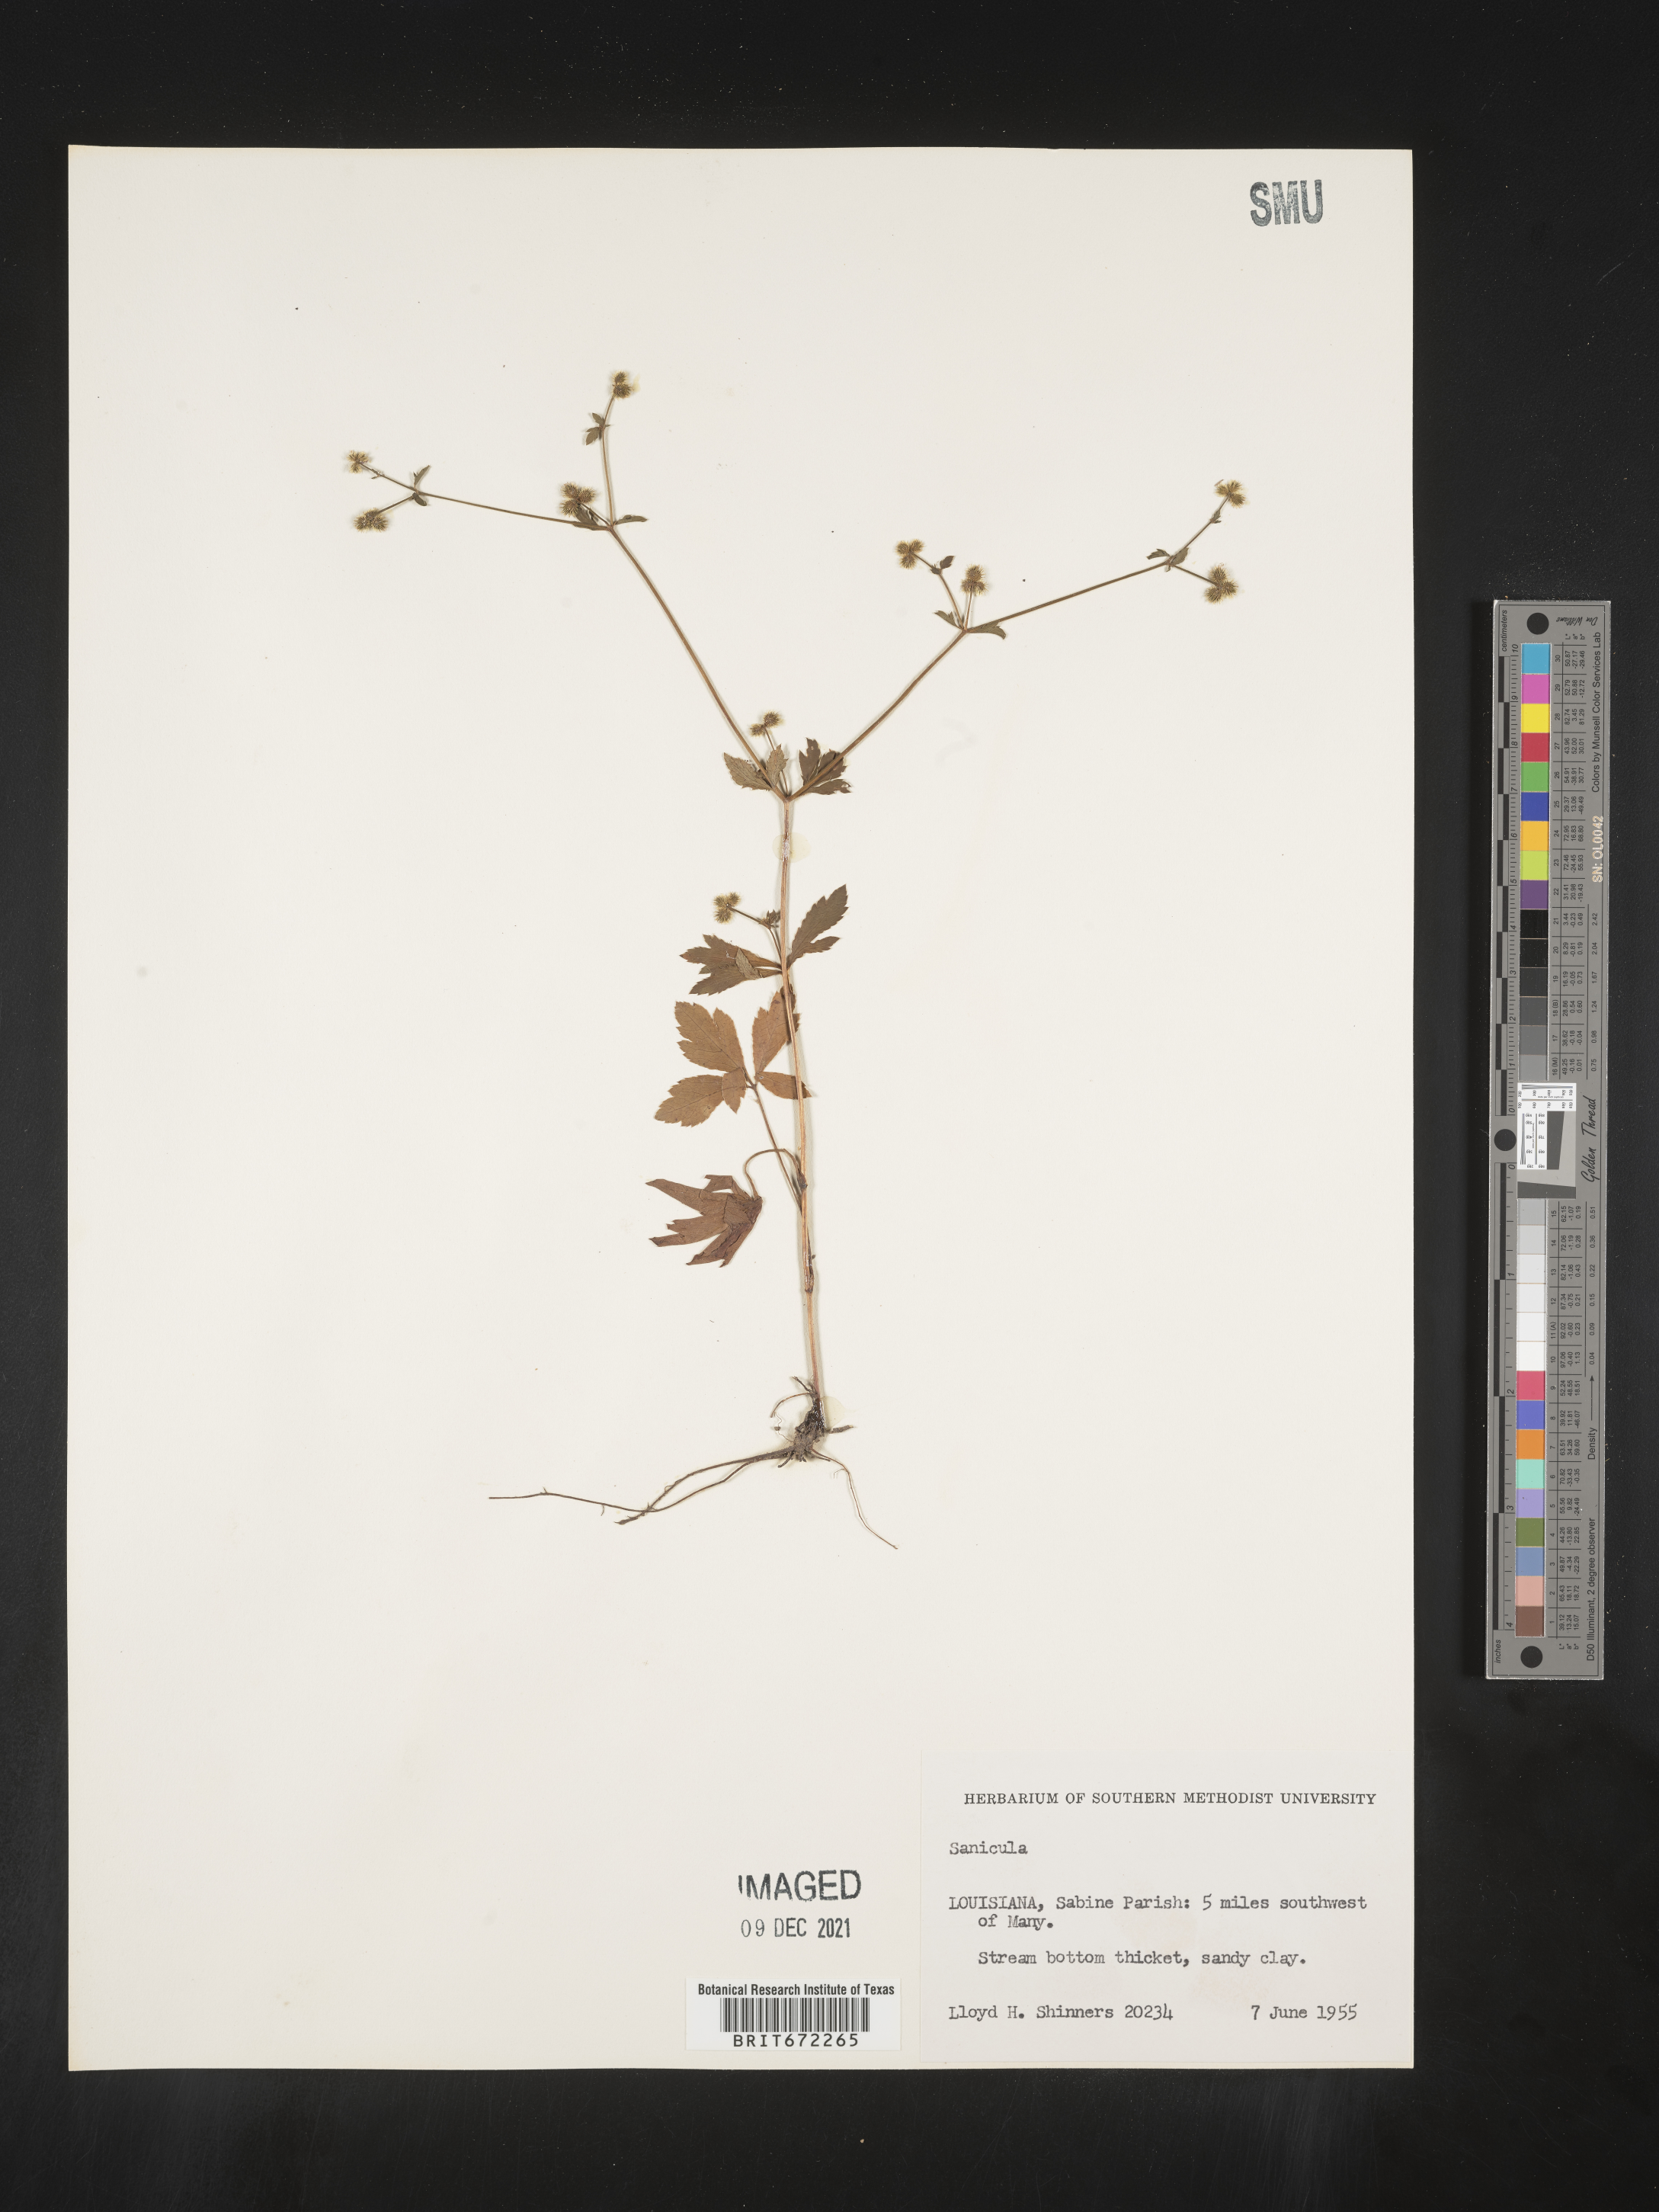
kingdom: Plantae
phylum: Tracheophyta
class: Magnoliopsida
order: Apiales
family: Apiaceae
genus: Sanicula
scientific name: Sanicula
